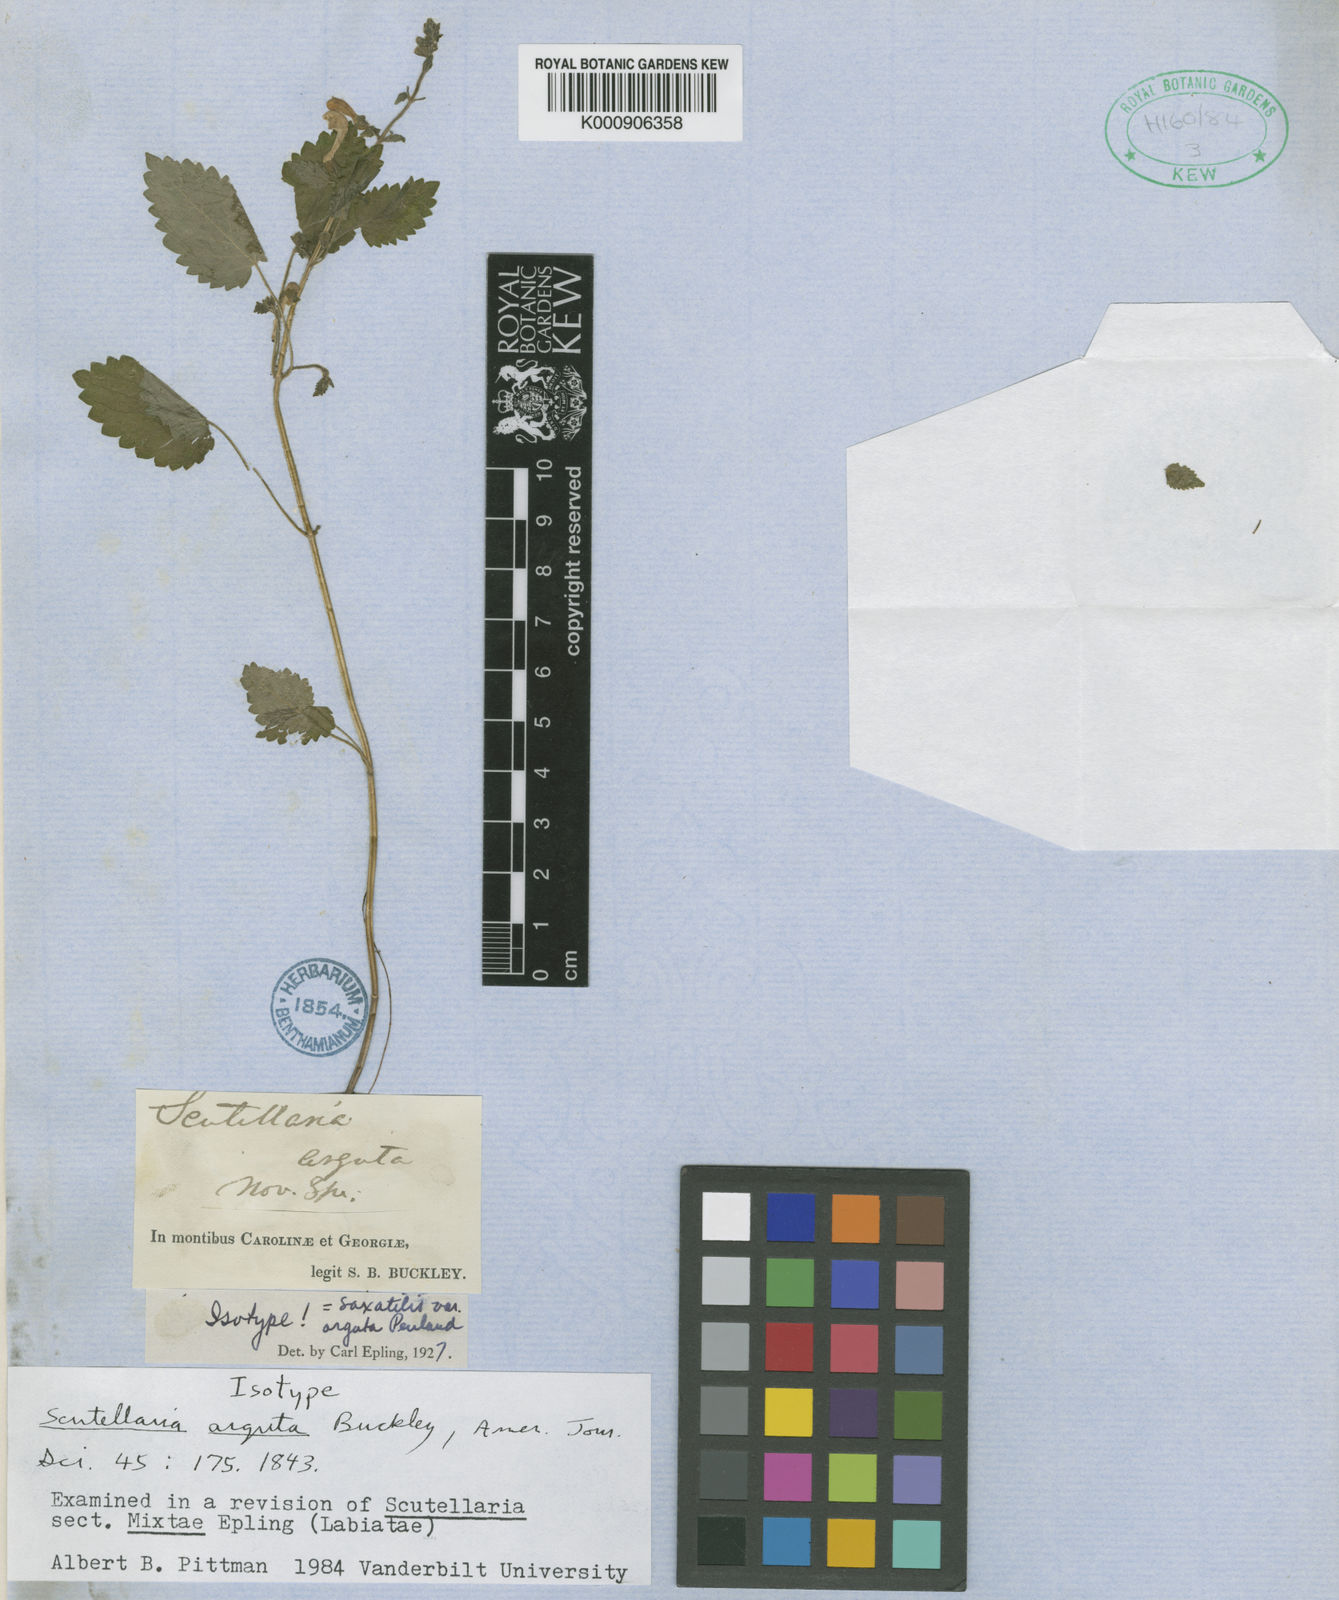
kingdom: Plantae
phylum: Tracheophyta
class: Magnoliopsida
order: Lamiales
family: Lamiaceae
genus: Scutellaria
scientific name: Scutellaria arguta
